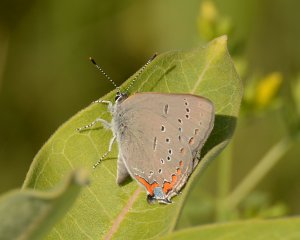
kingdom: Animalia
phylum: Arthropoda
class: Insecta
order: Lepidoptera
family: Lycaenidae
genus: Strymon
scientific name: Strymon acadica
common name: Acadian Hairstreak
